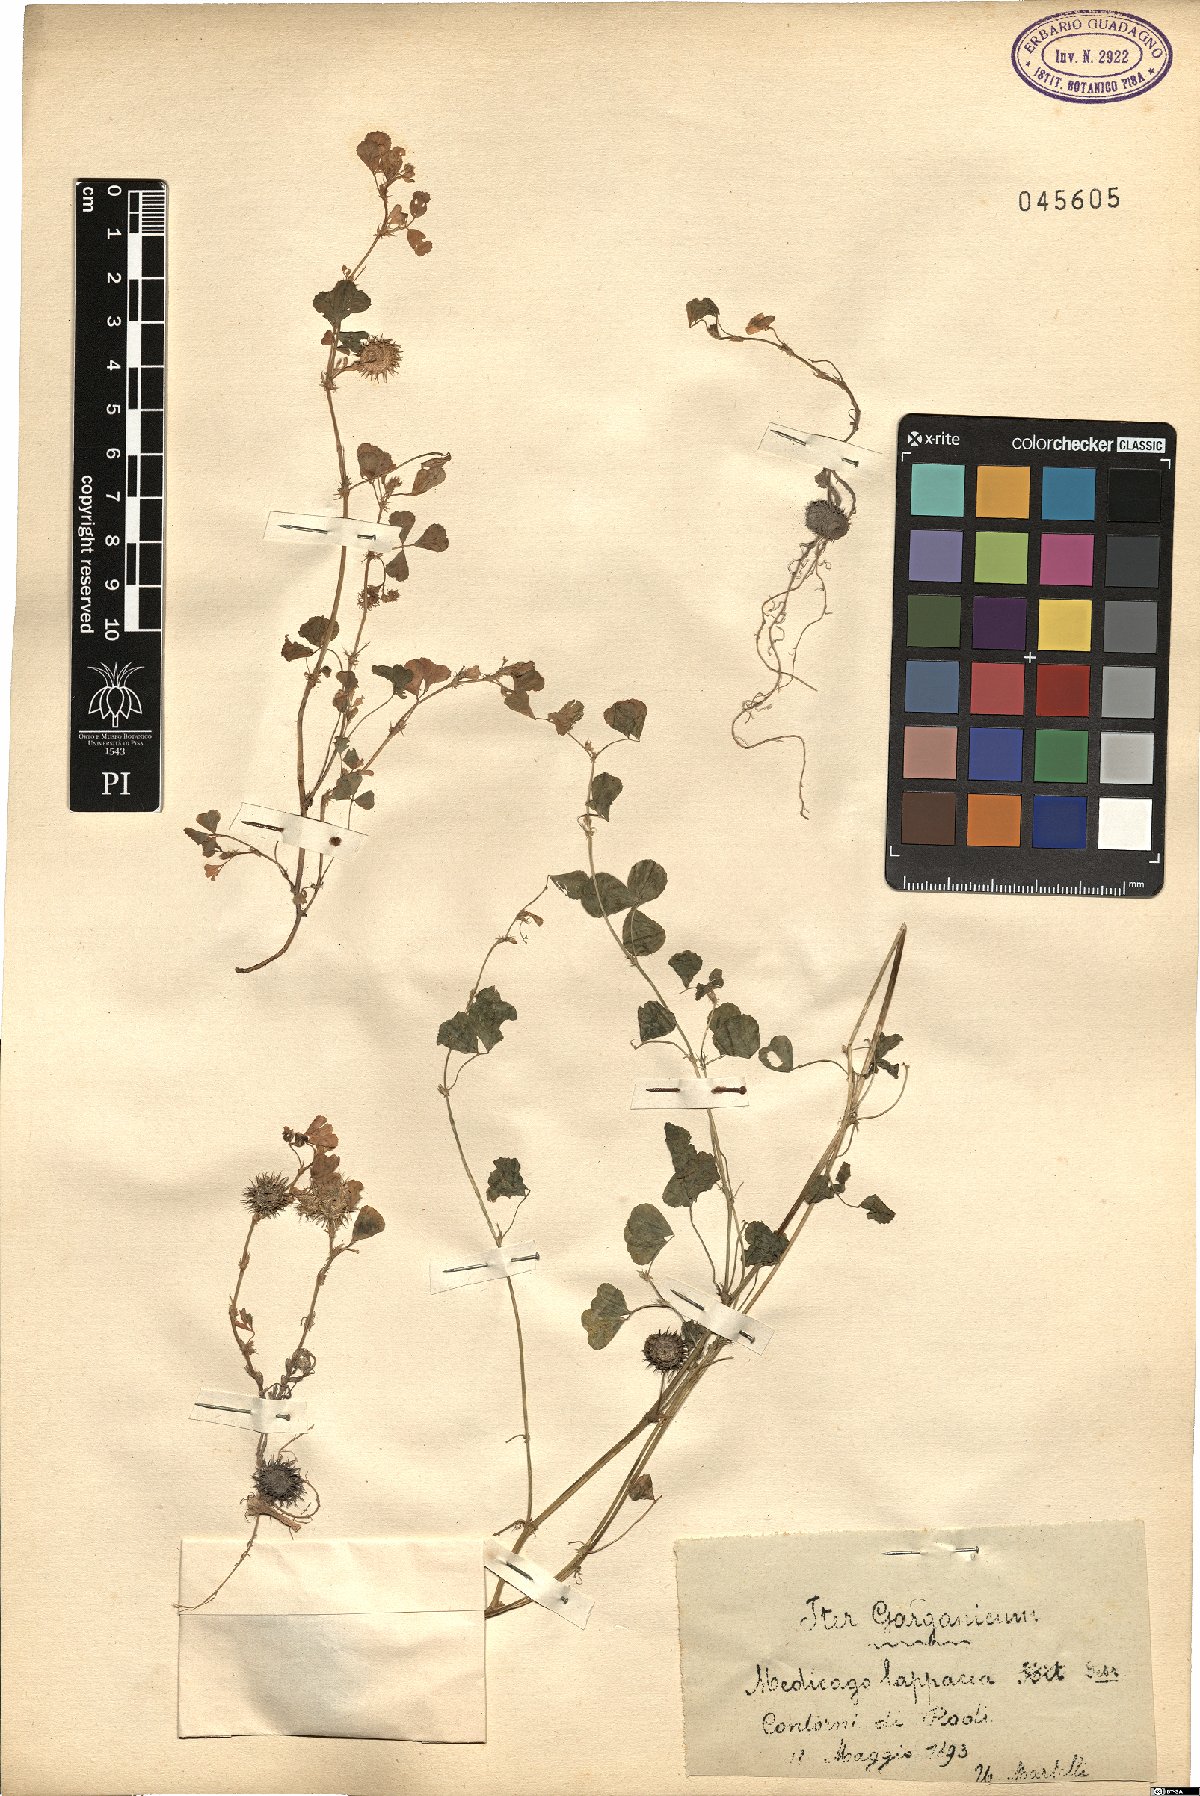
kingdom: Plantae
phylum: Tracheophyta
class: Magnoliopsida
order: Fabales
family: Fabaceae
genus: Medicago
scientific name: Medicago polymorpha
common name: Burclover
